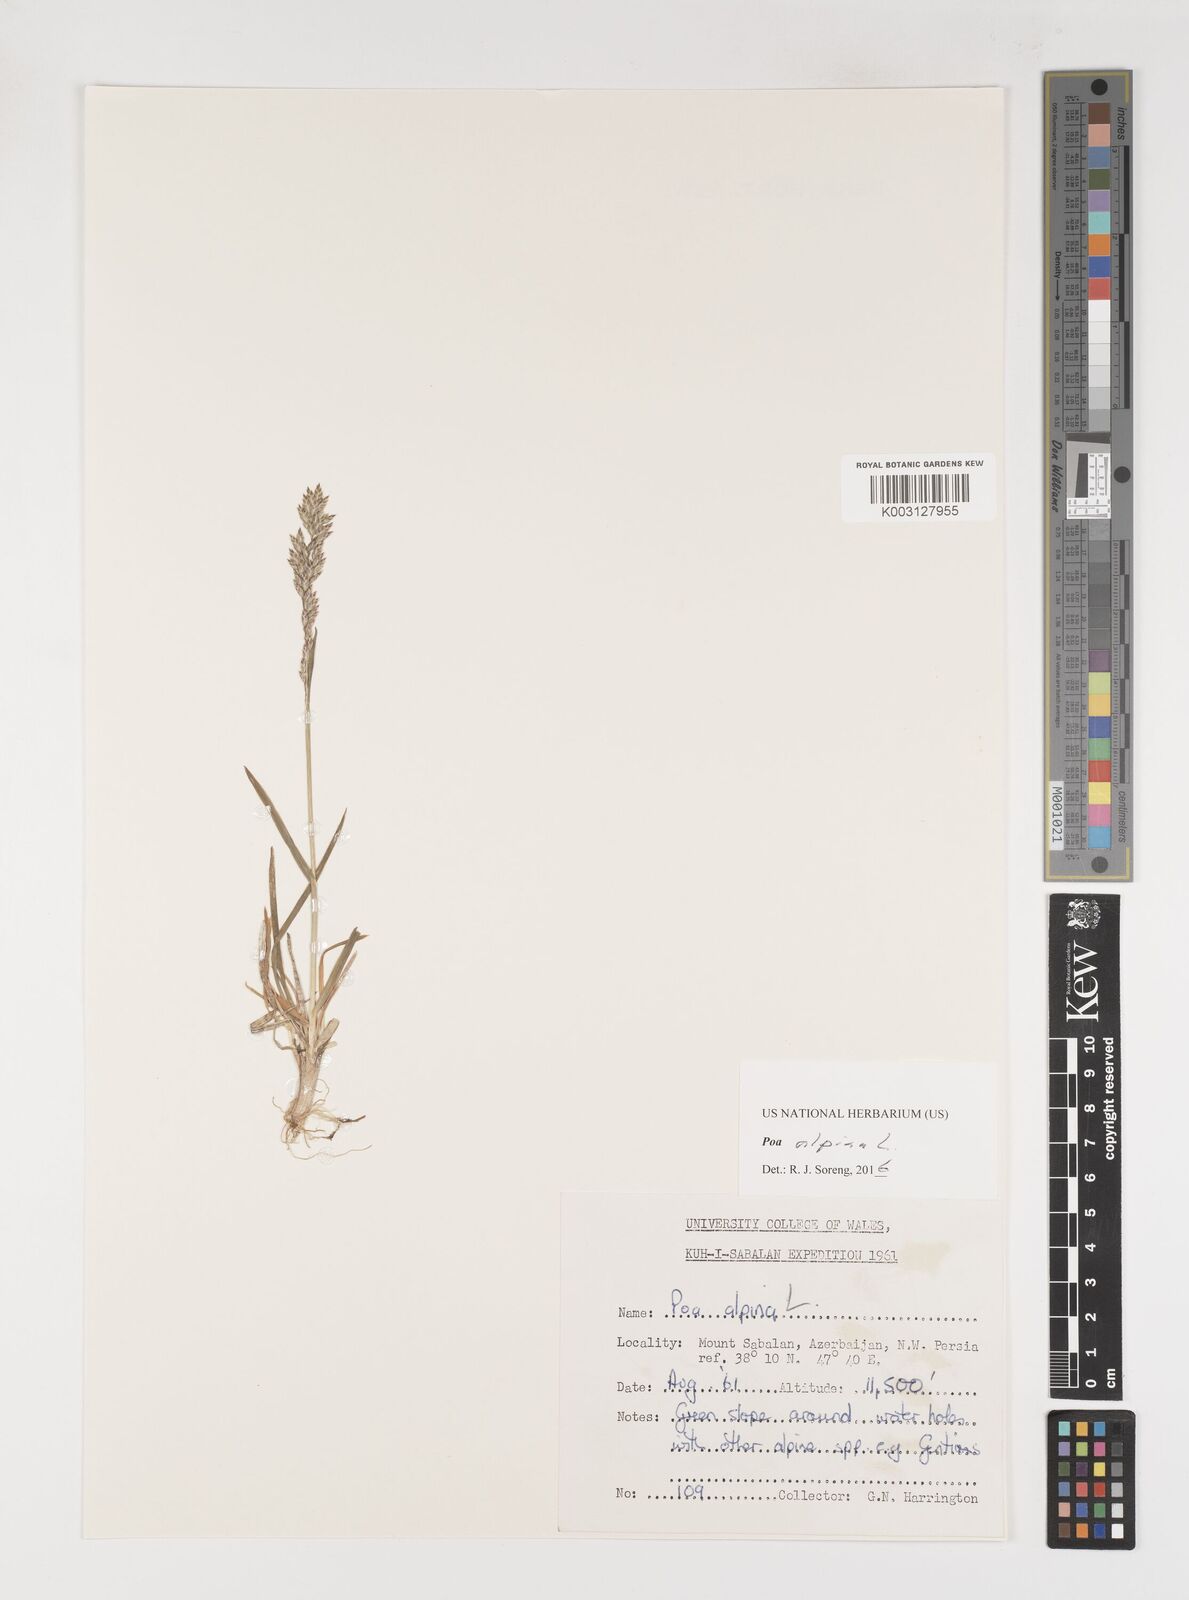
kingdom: Plantae
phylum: Tracheophyta
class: Liliopsida
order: Poales
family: Poaceae
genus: Poa
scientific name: Poa alpina
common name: Alpine bluegrass
